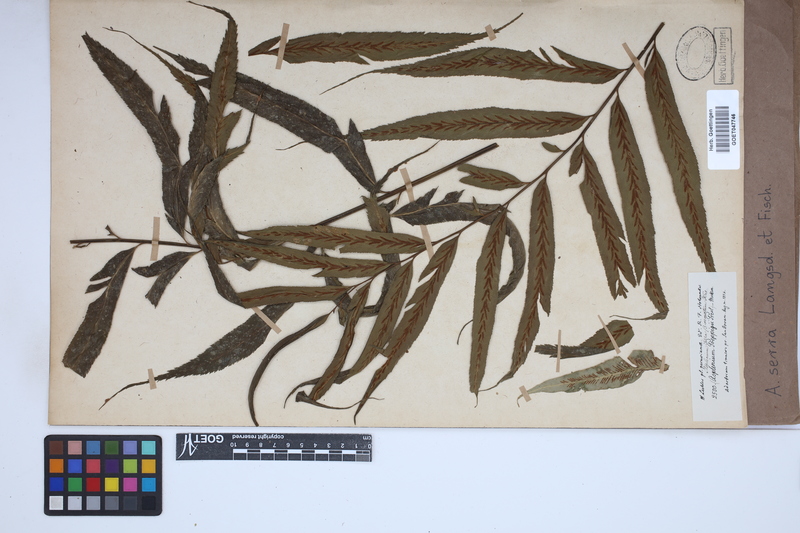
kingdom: Plantae
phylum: Tracheophyta
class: Polypodiopsida
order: Polypodiales
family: Aspleniaceae
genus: Asplenium
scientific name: Asplenium serra
